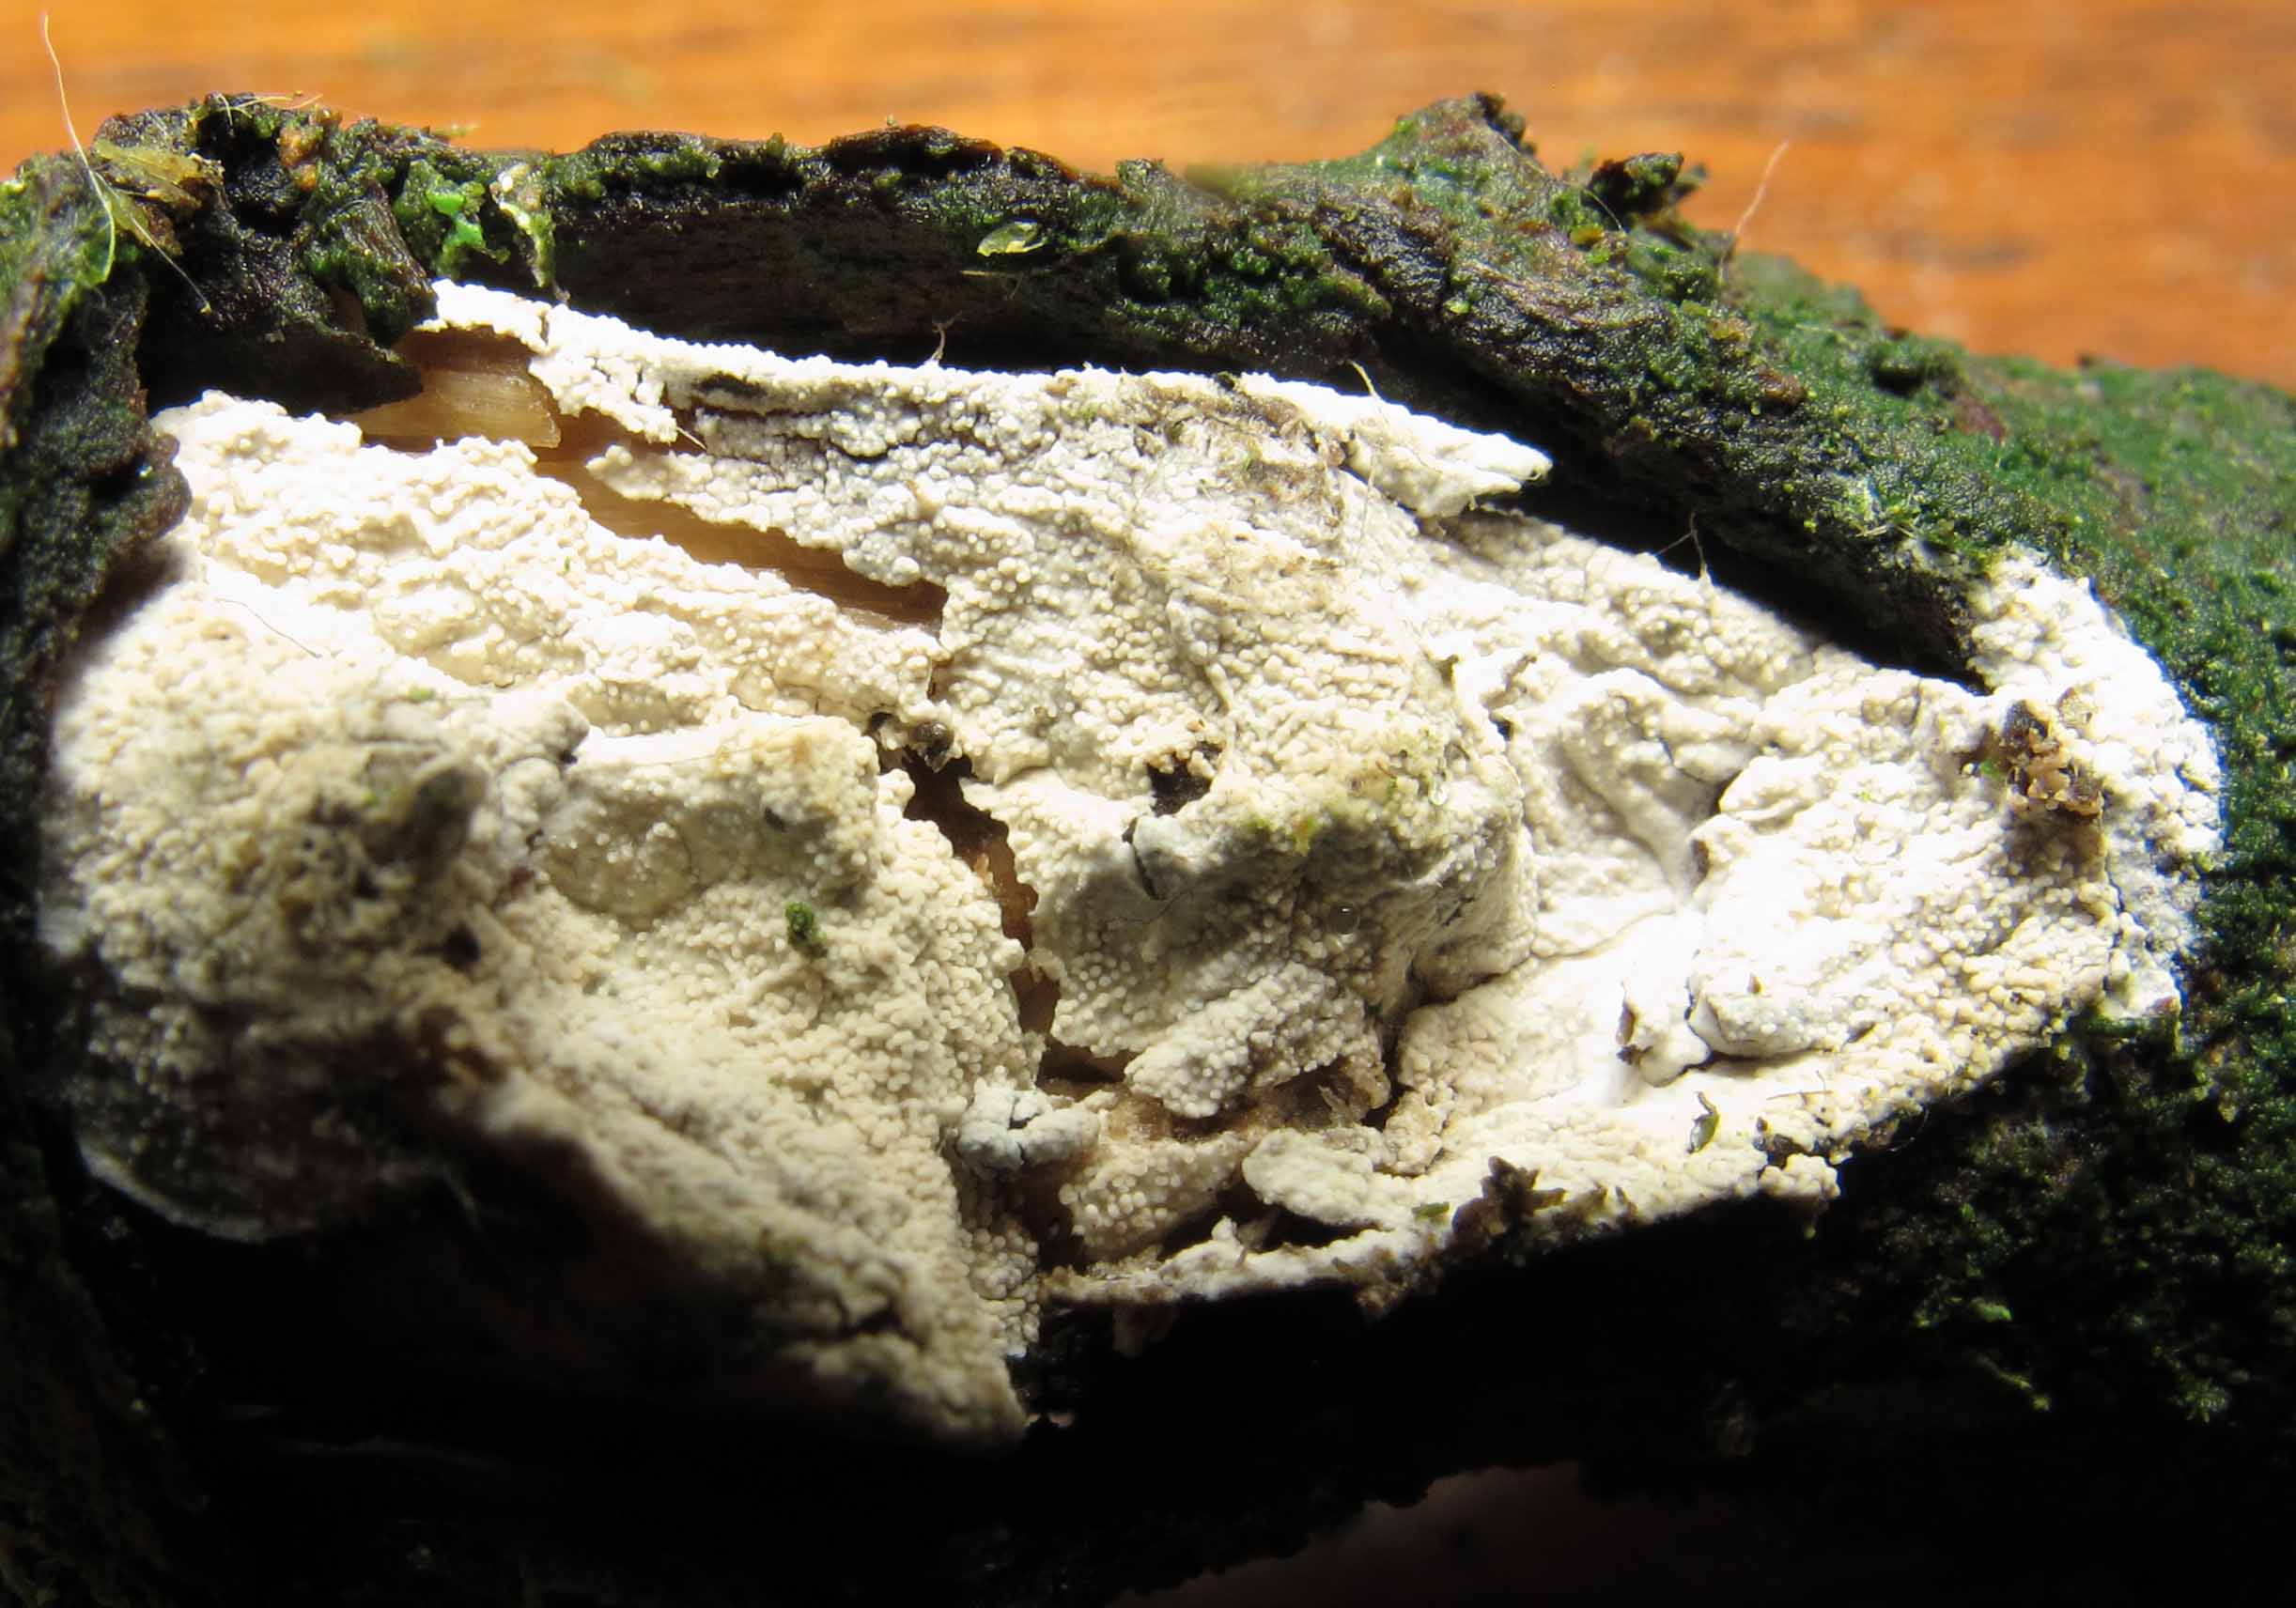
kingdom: Fungi
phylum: Basidiomycota
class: Agaricomycetes
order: Trechisporales
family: Hydnodontaceae
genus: Brevicellicium
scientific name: Brevicellicium olivascens
